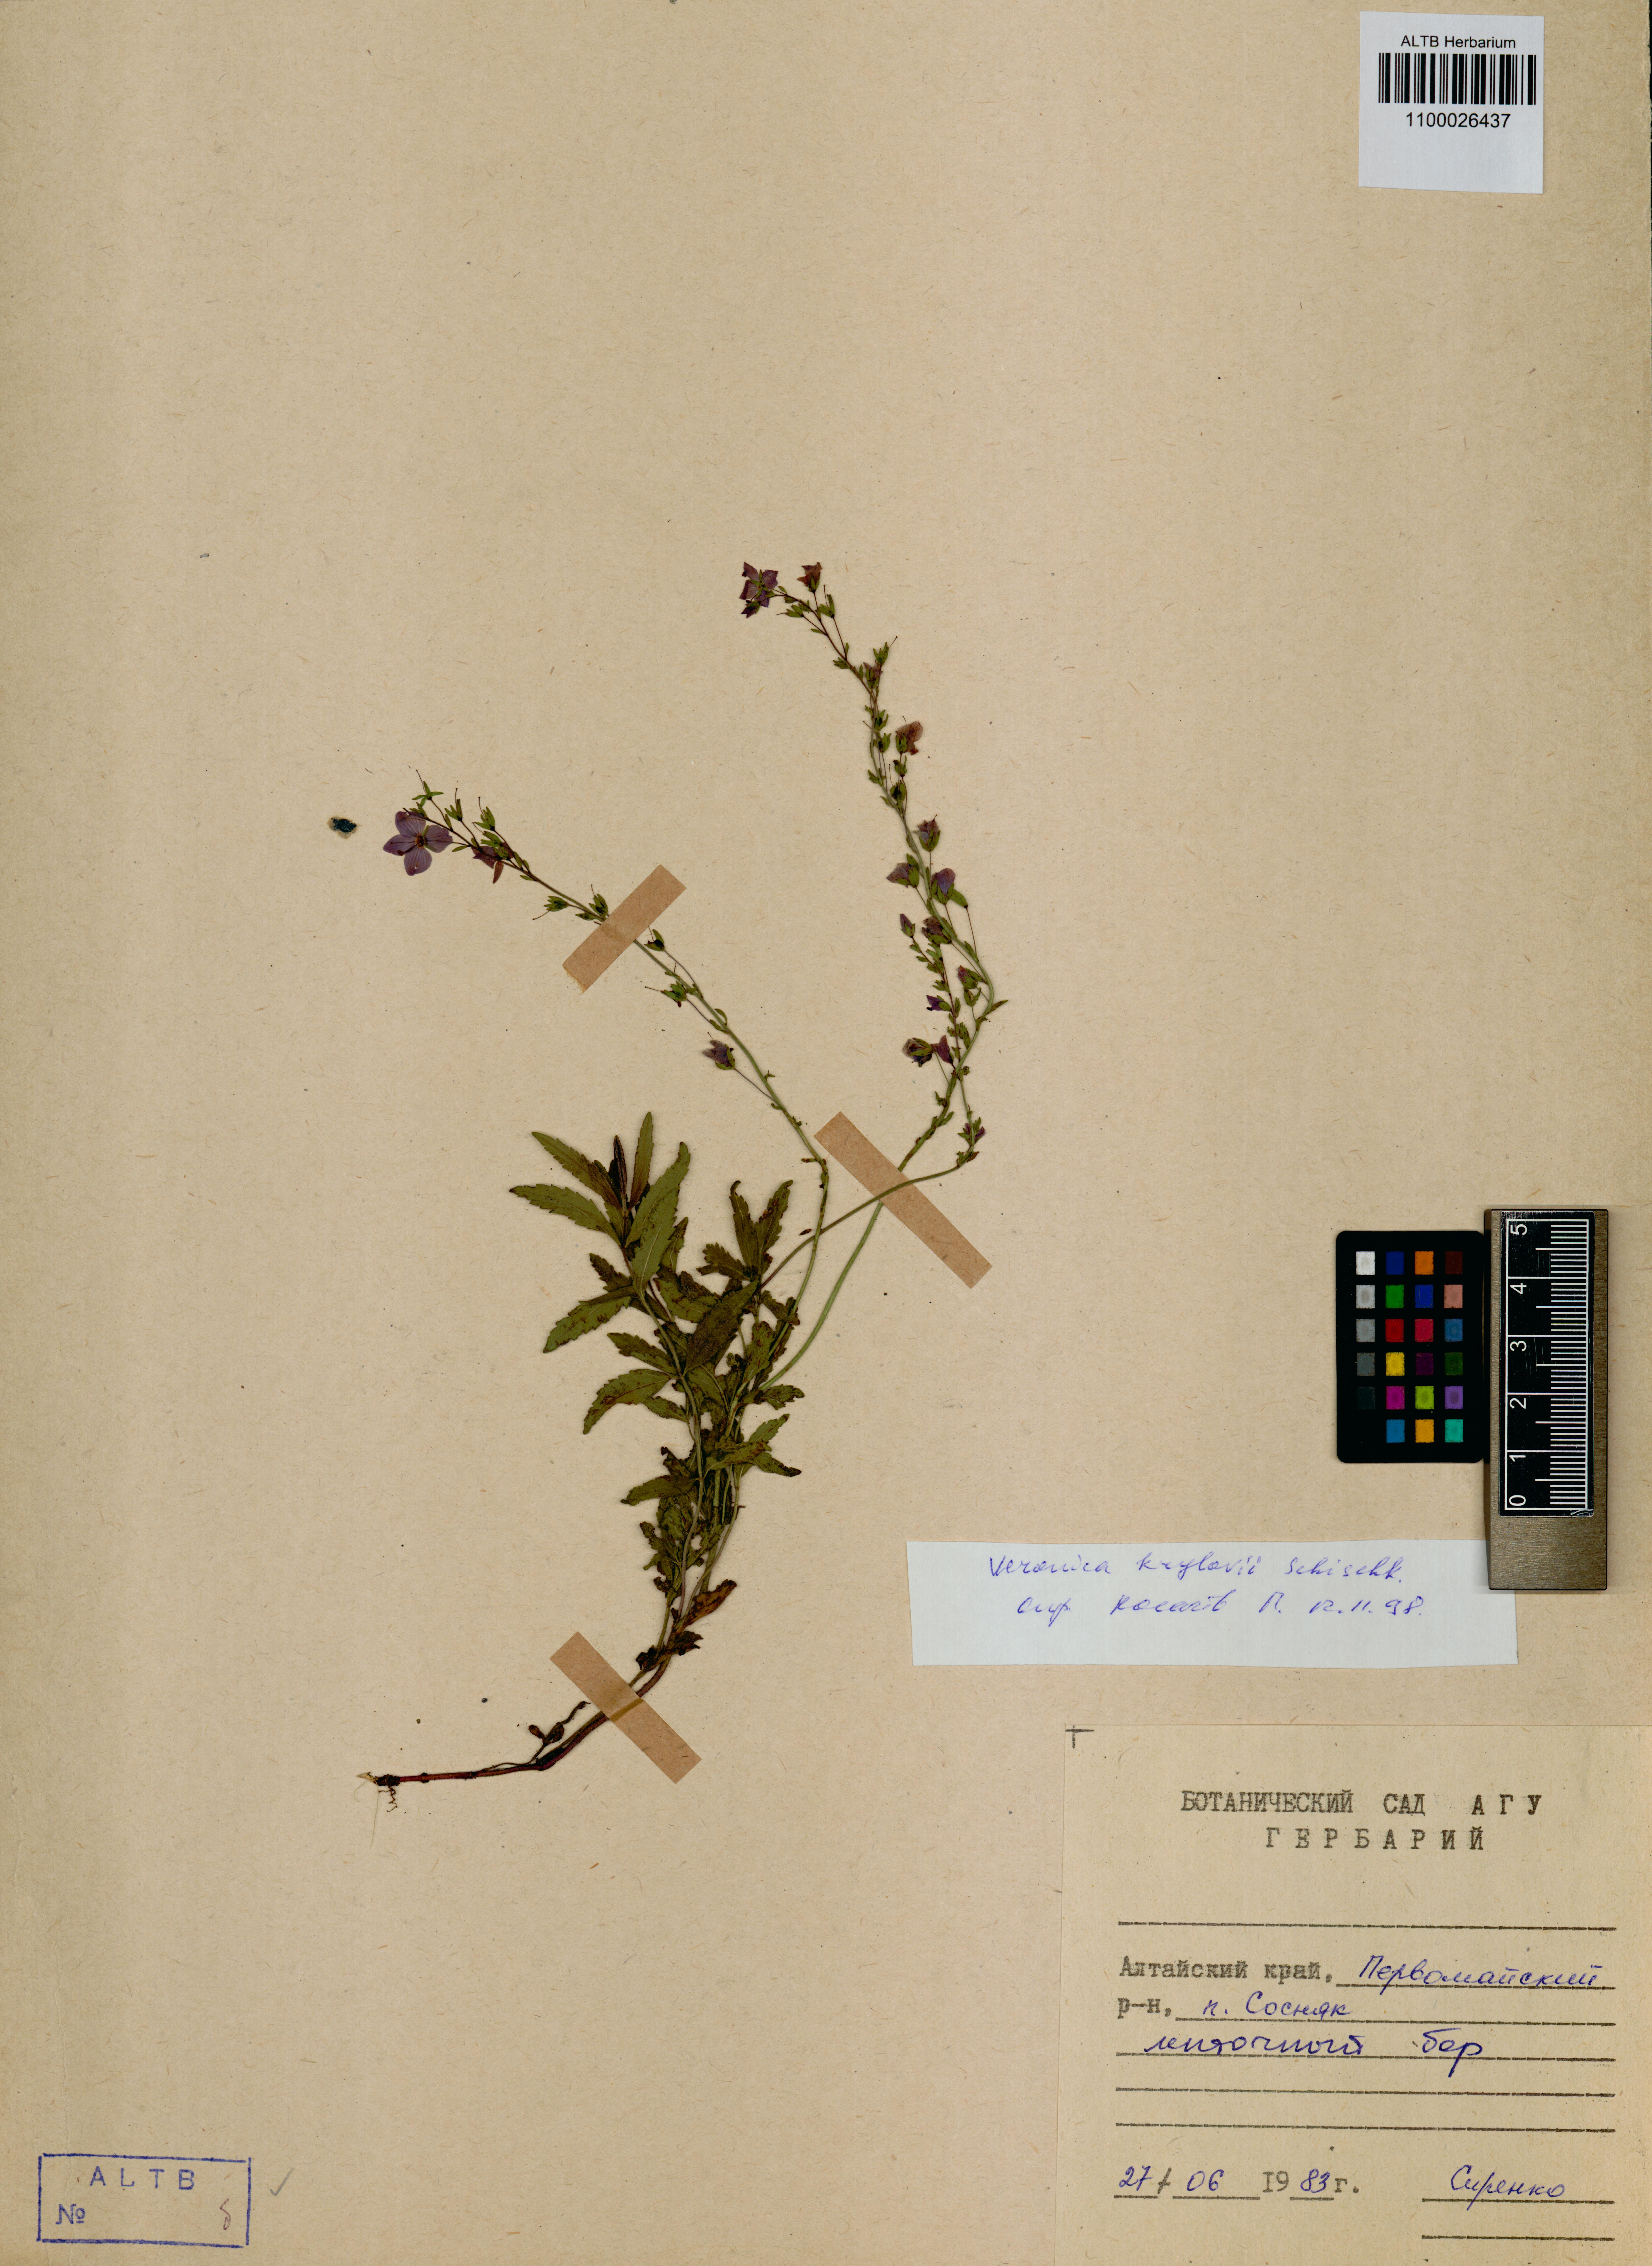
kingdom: Plantae
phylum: Tracheophyta
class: Magnoliopsida
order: Lamiales
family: Plantaginaceae
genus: Veronica
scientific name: Veronica krylovii
